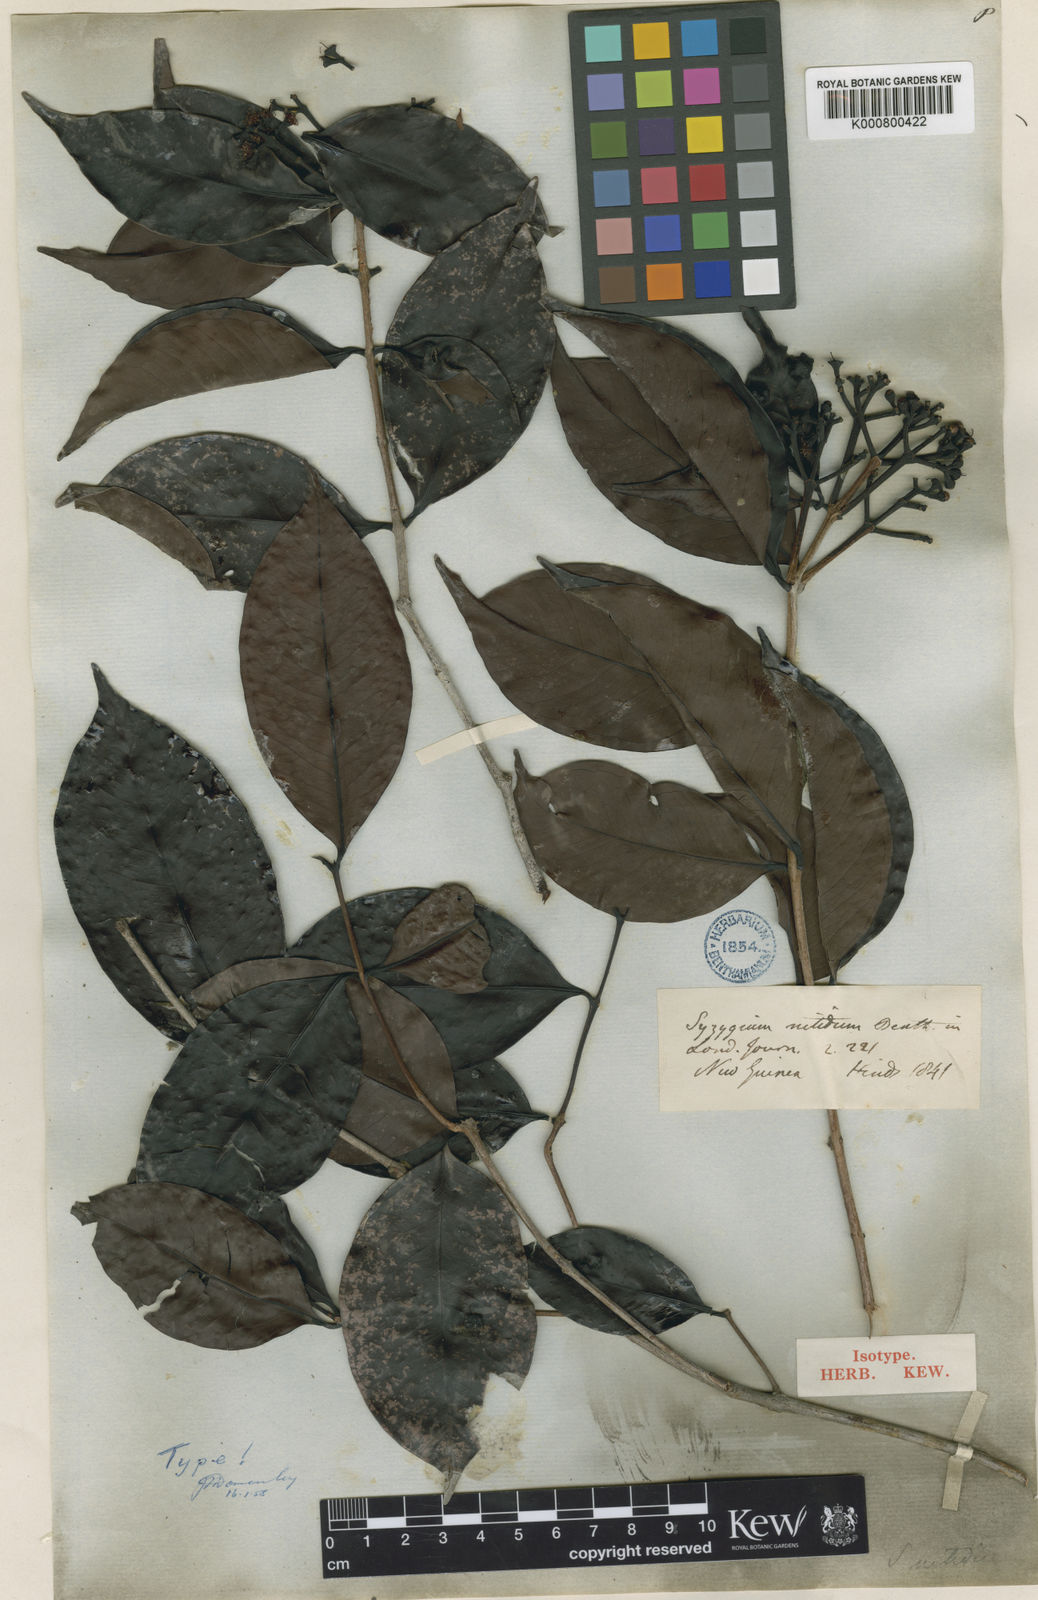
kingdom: Plantae
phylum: Tracheophyta
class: Magnoliopsida
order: Myrtales
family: Myrtaceae
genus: Syzygium
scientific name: Syzygium nitidum
